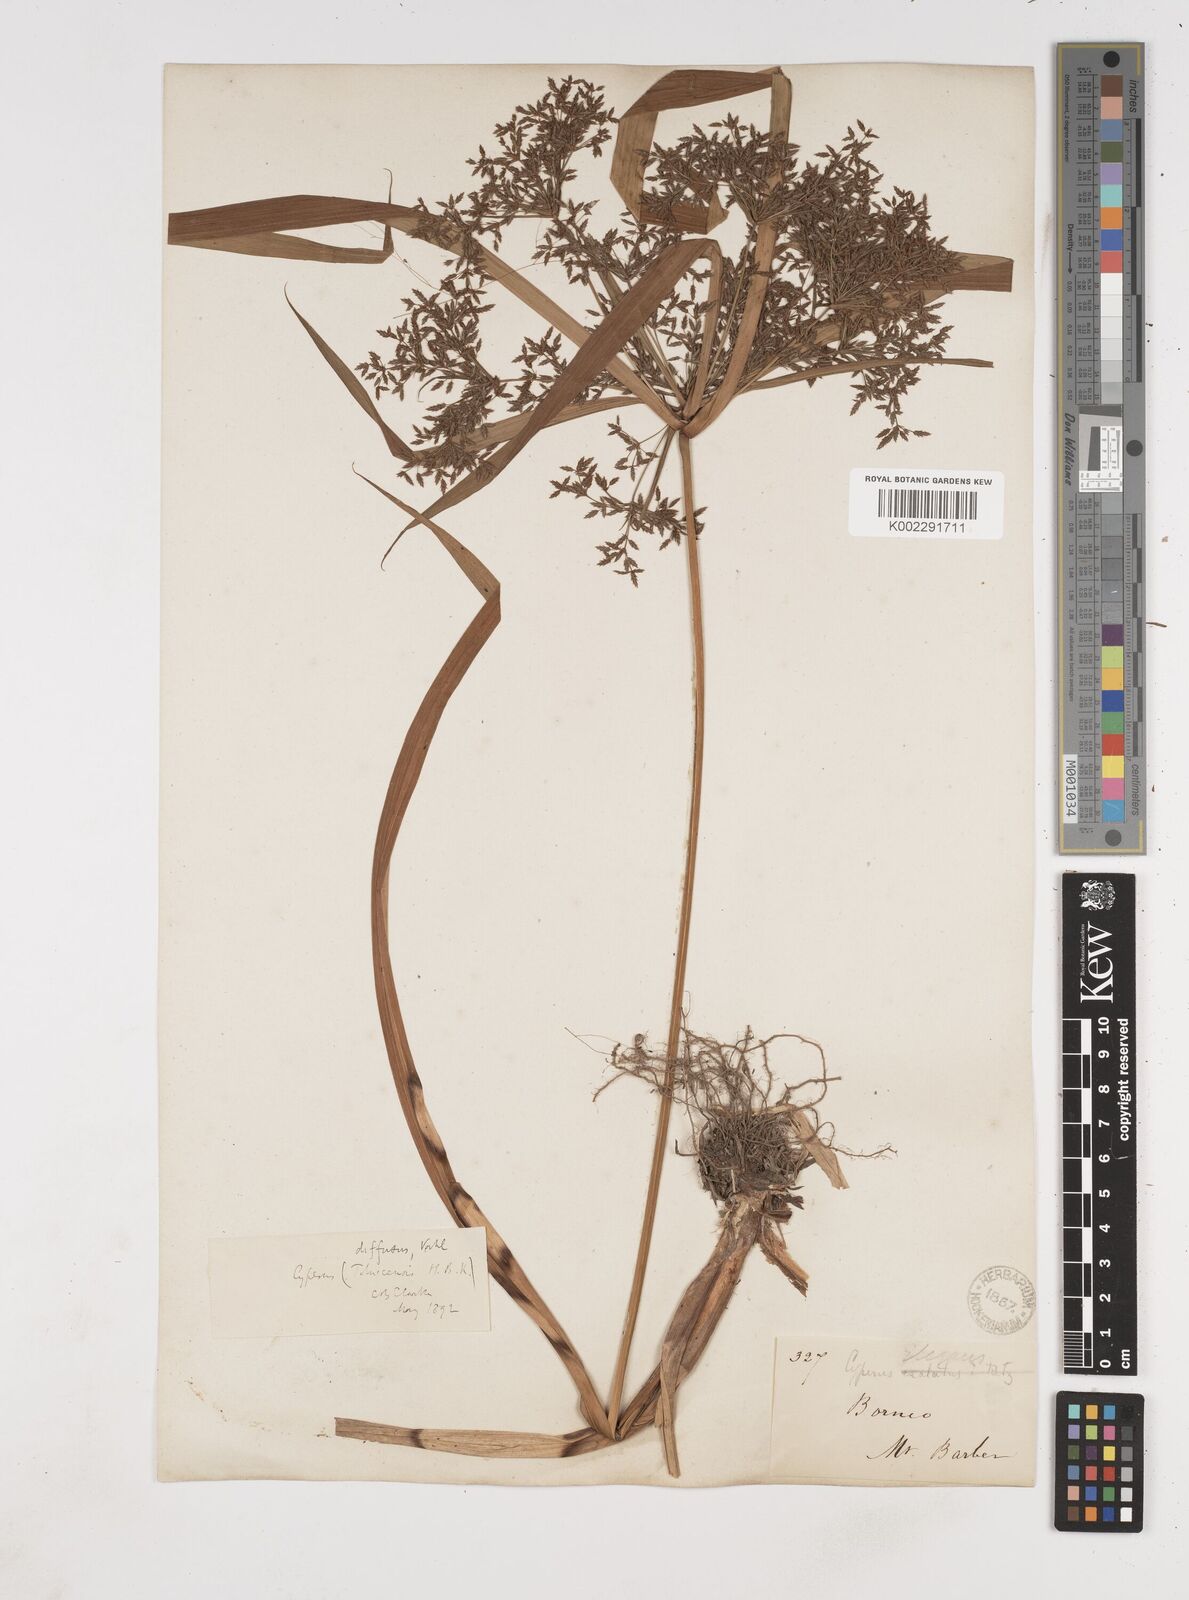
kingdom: Plantae
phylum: Tracheophyta
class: Liliopsida
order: Poales
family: Cyperaceae
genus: Cyperus
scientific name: Cyperus diffusus
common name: Dwarf umbrella grass
